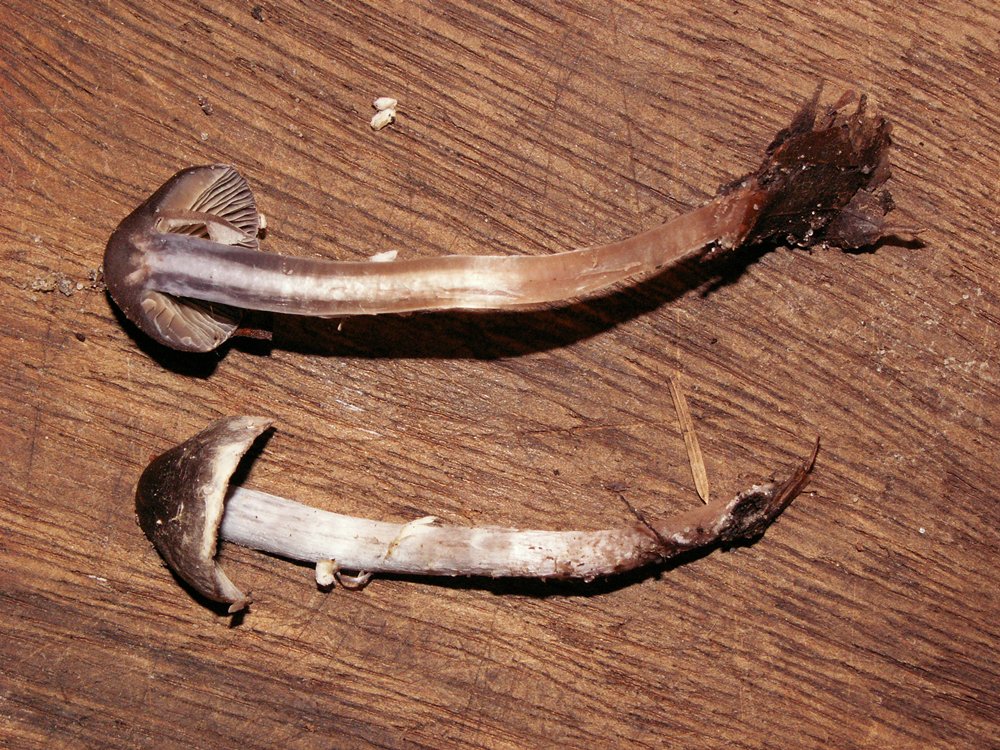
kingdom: Fungi
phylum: Basidiomycota
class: Agaricomycetes
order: Agaricales
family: Cortinariaceae
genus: Cortinarius
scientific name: Cortinarius vernus
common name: sommer-slørhat
